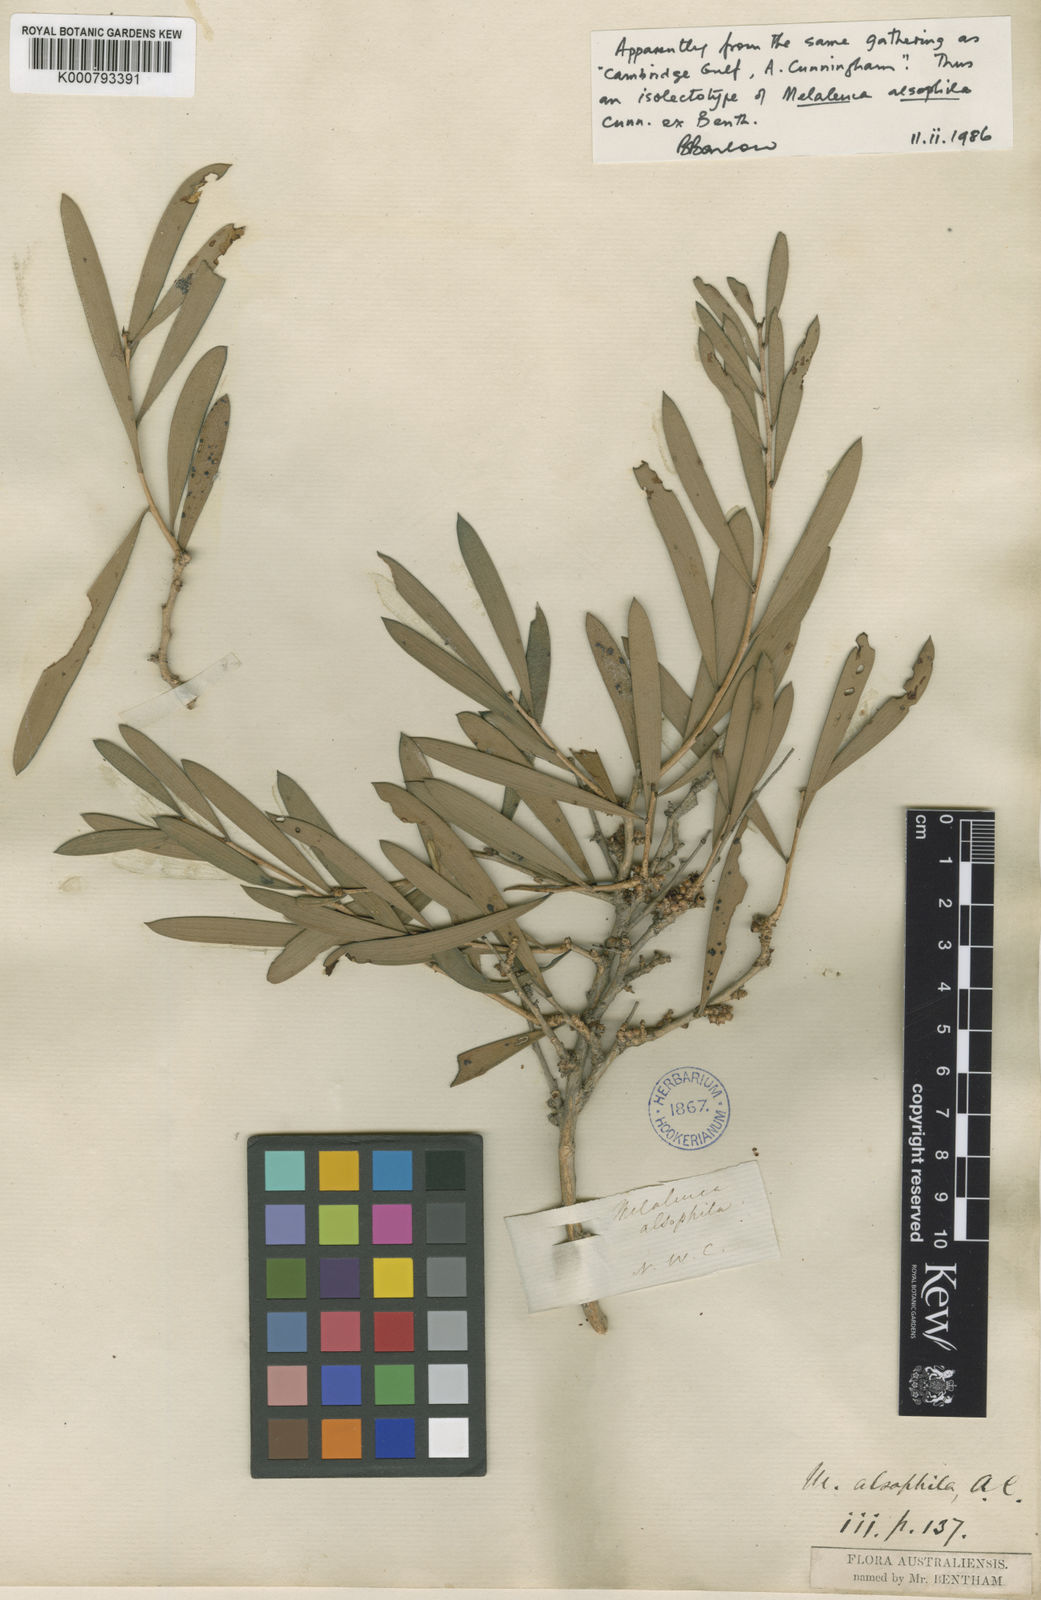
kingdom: Plantae
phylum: Tracheophyta
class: Magnoliopsida
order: Myrtales
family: Myrtaceae
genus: Melaleuca
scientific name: Melaleuca alsophila
